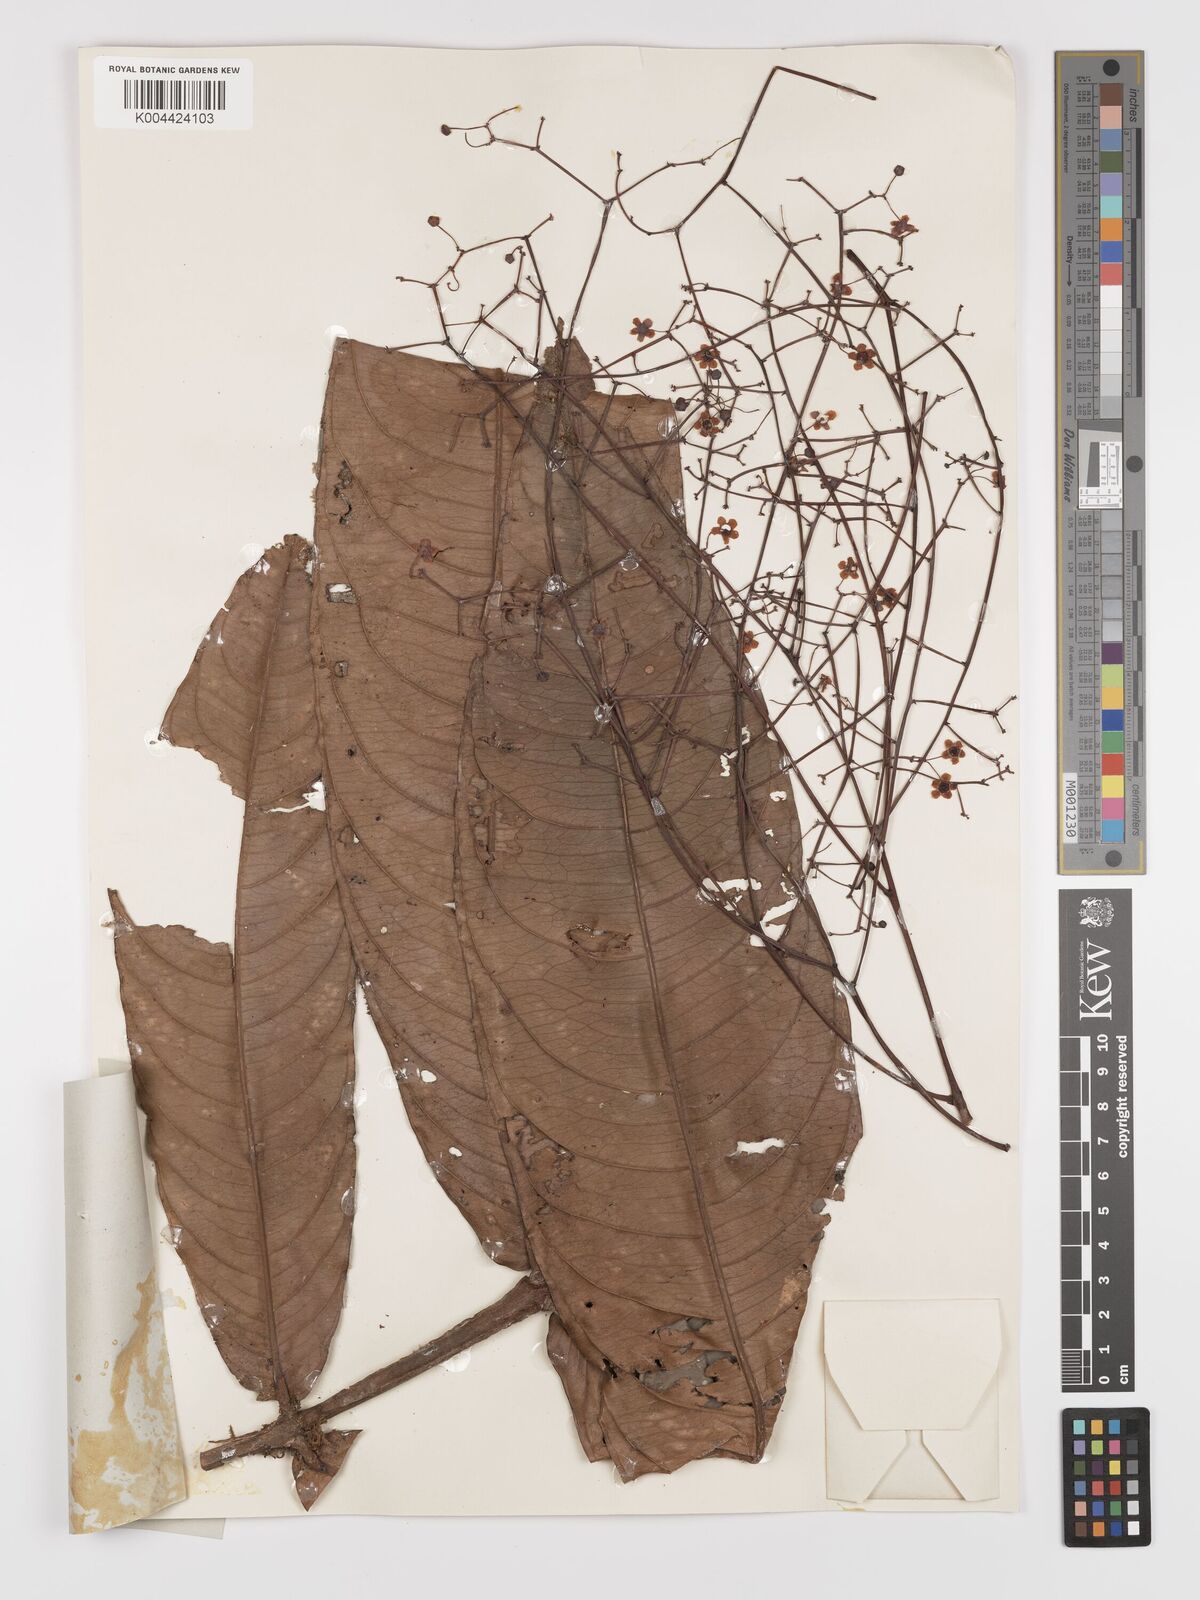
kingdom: Plantae
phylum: Tracheophyta
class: Magnoliopsida
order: Celastrales
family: Celastraceae
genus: Lophopetalum
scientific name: Lophopetalum sessilifolium
